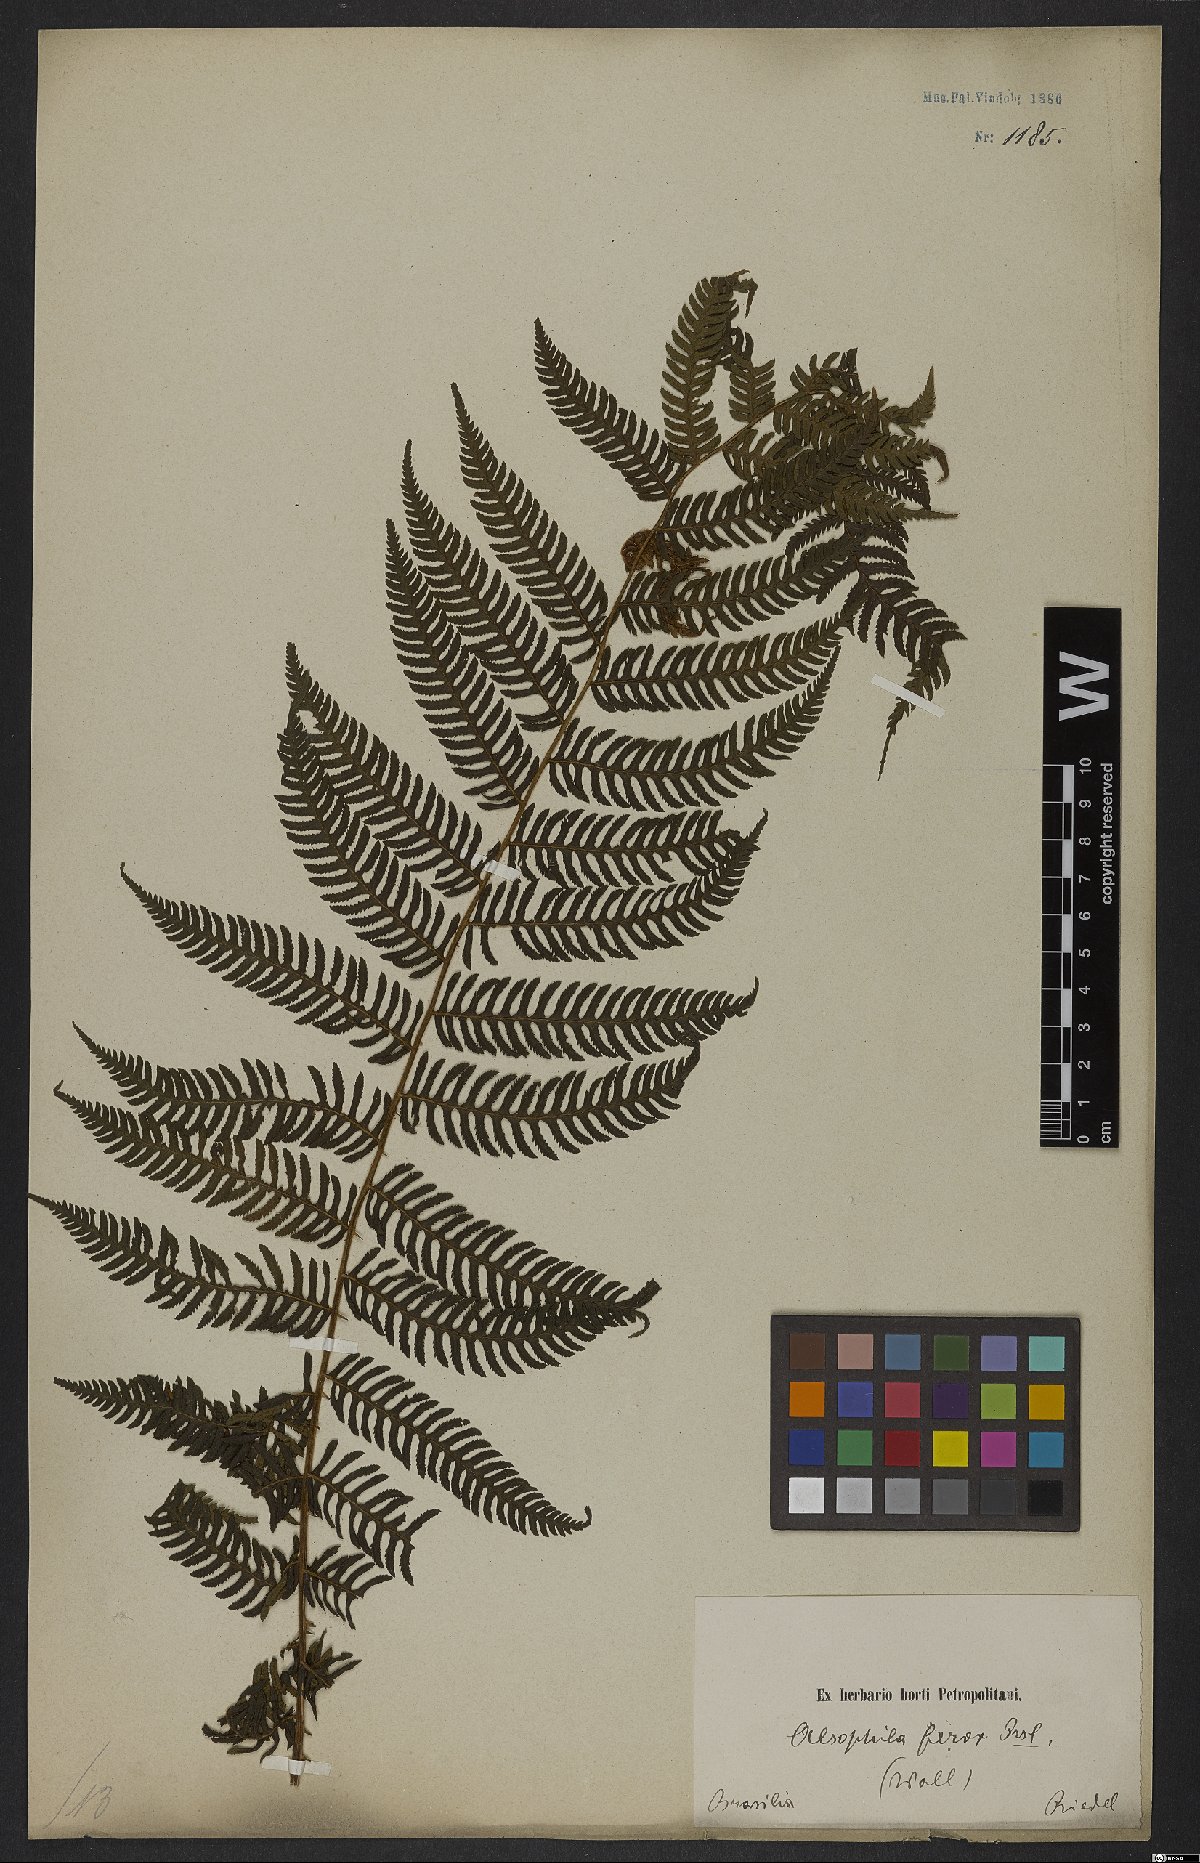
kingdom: Plantae
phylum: Tracheophyta
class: Polypodiopsida
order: Cyatheales
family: Cyatheaceae
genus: Cyathea
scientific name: Cyathea microdonta
